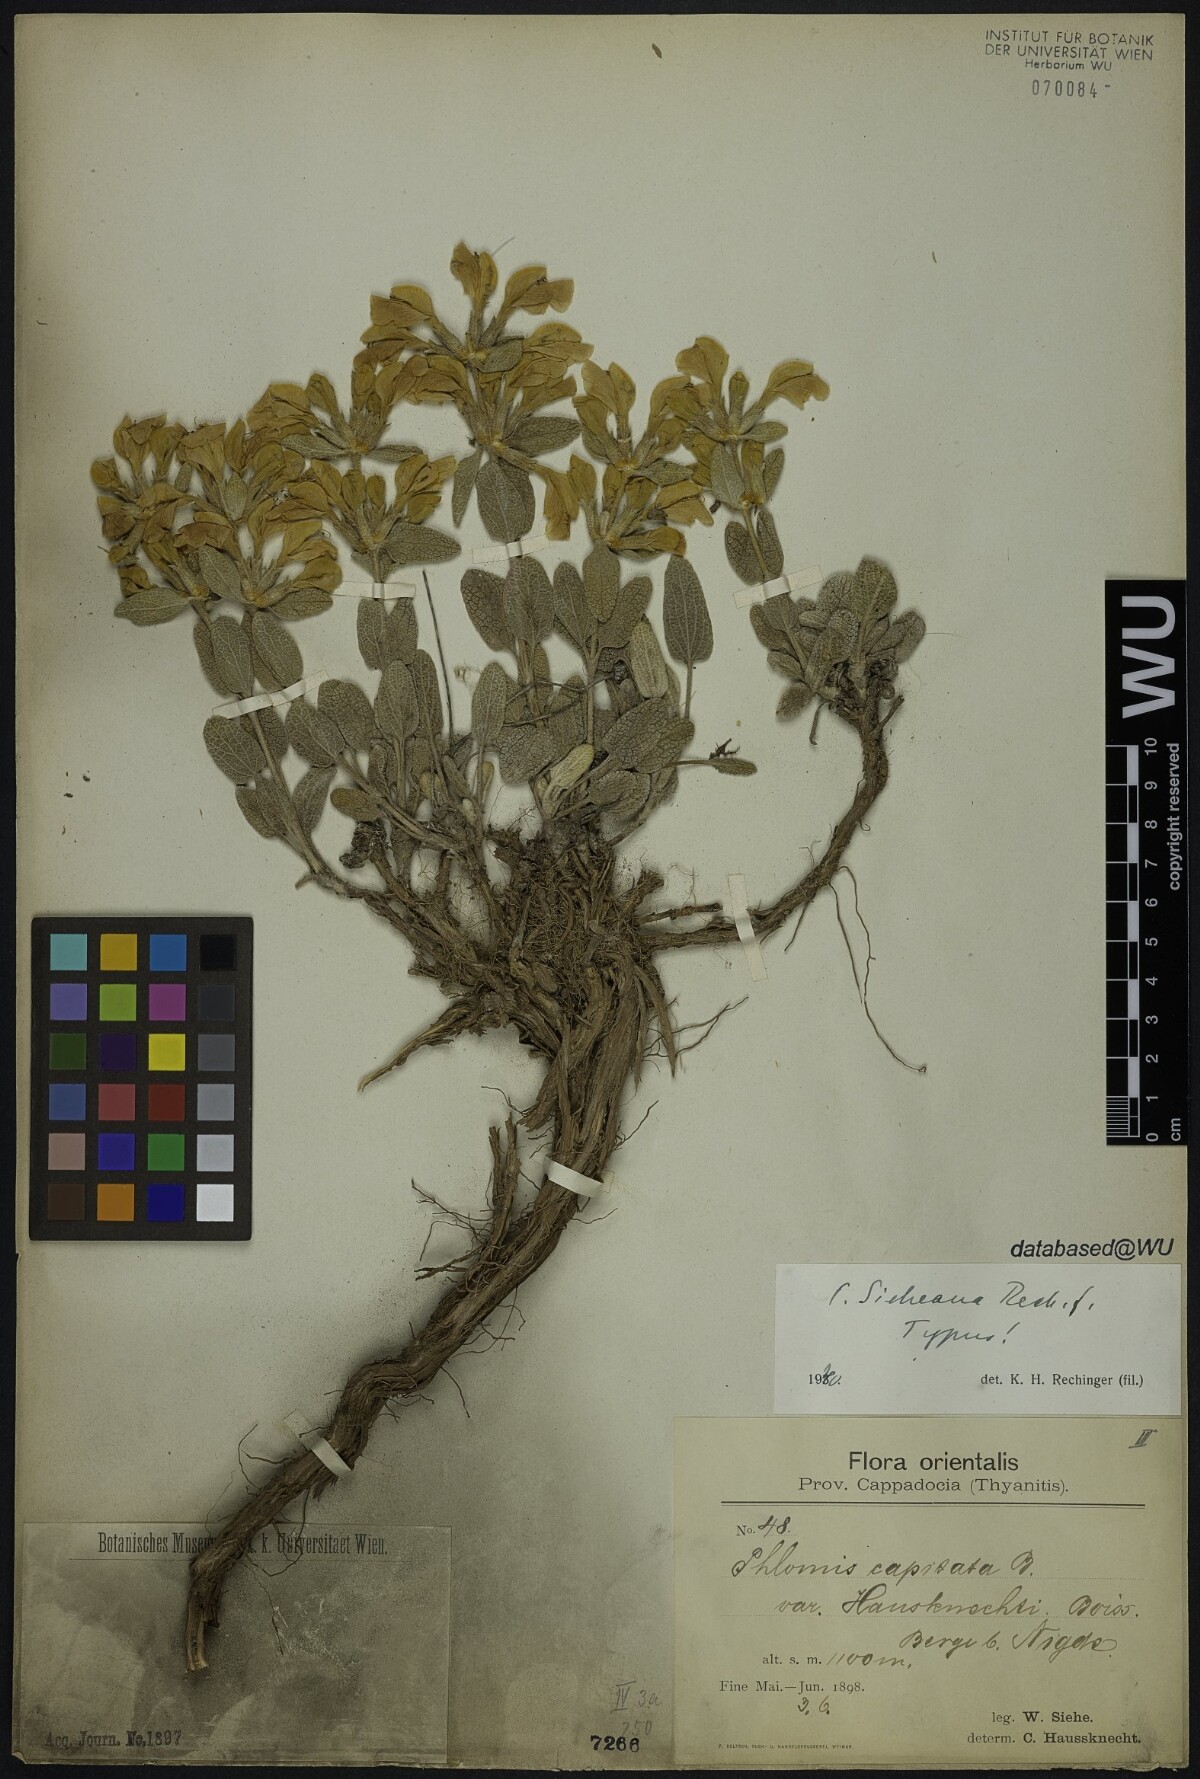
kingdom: Plantae
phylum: Tracheophyta
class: Magnoliopsida
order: Lamiales
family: Lamiaceae
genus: Phlomis
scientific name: Phlomis sieheana
